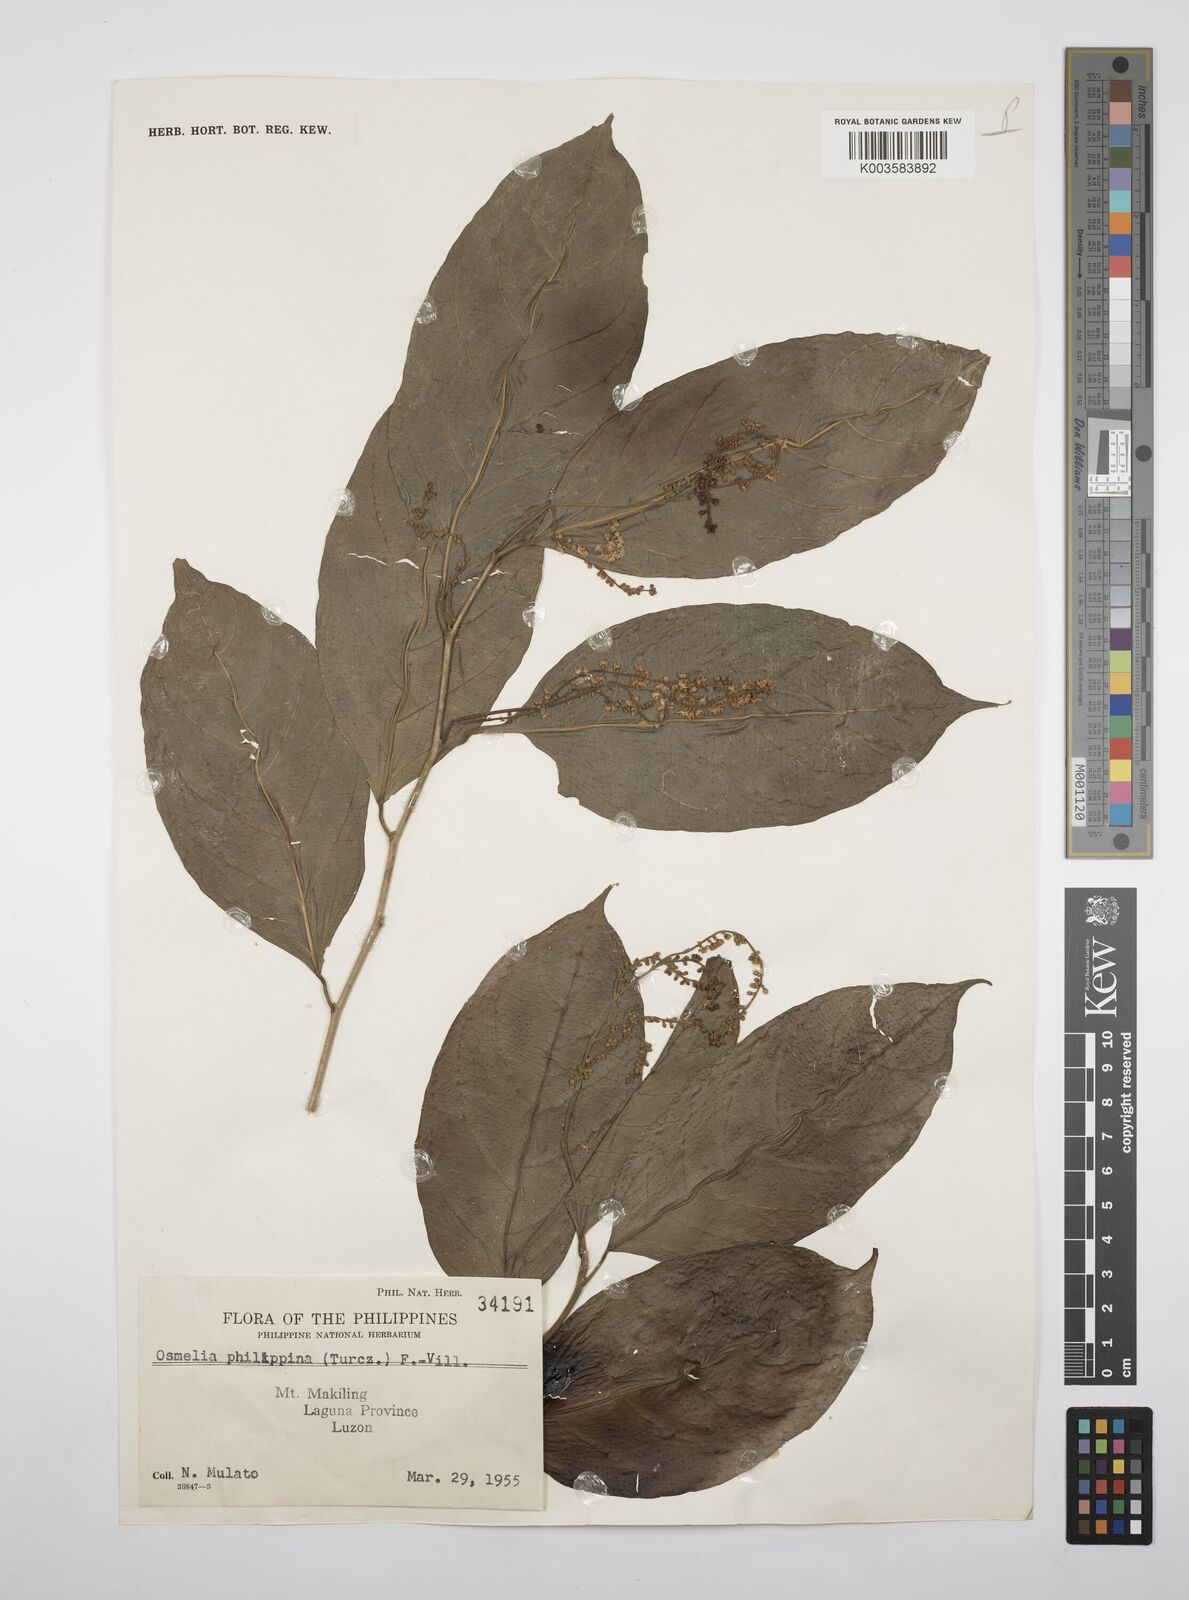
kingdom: Plantae
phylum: Tracheophyta
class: Magnoliopsida
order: Malpighiales
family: Salicaceae
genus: Osmelia
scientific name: Osmelia philippina
